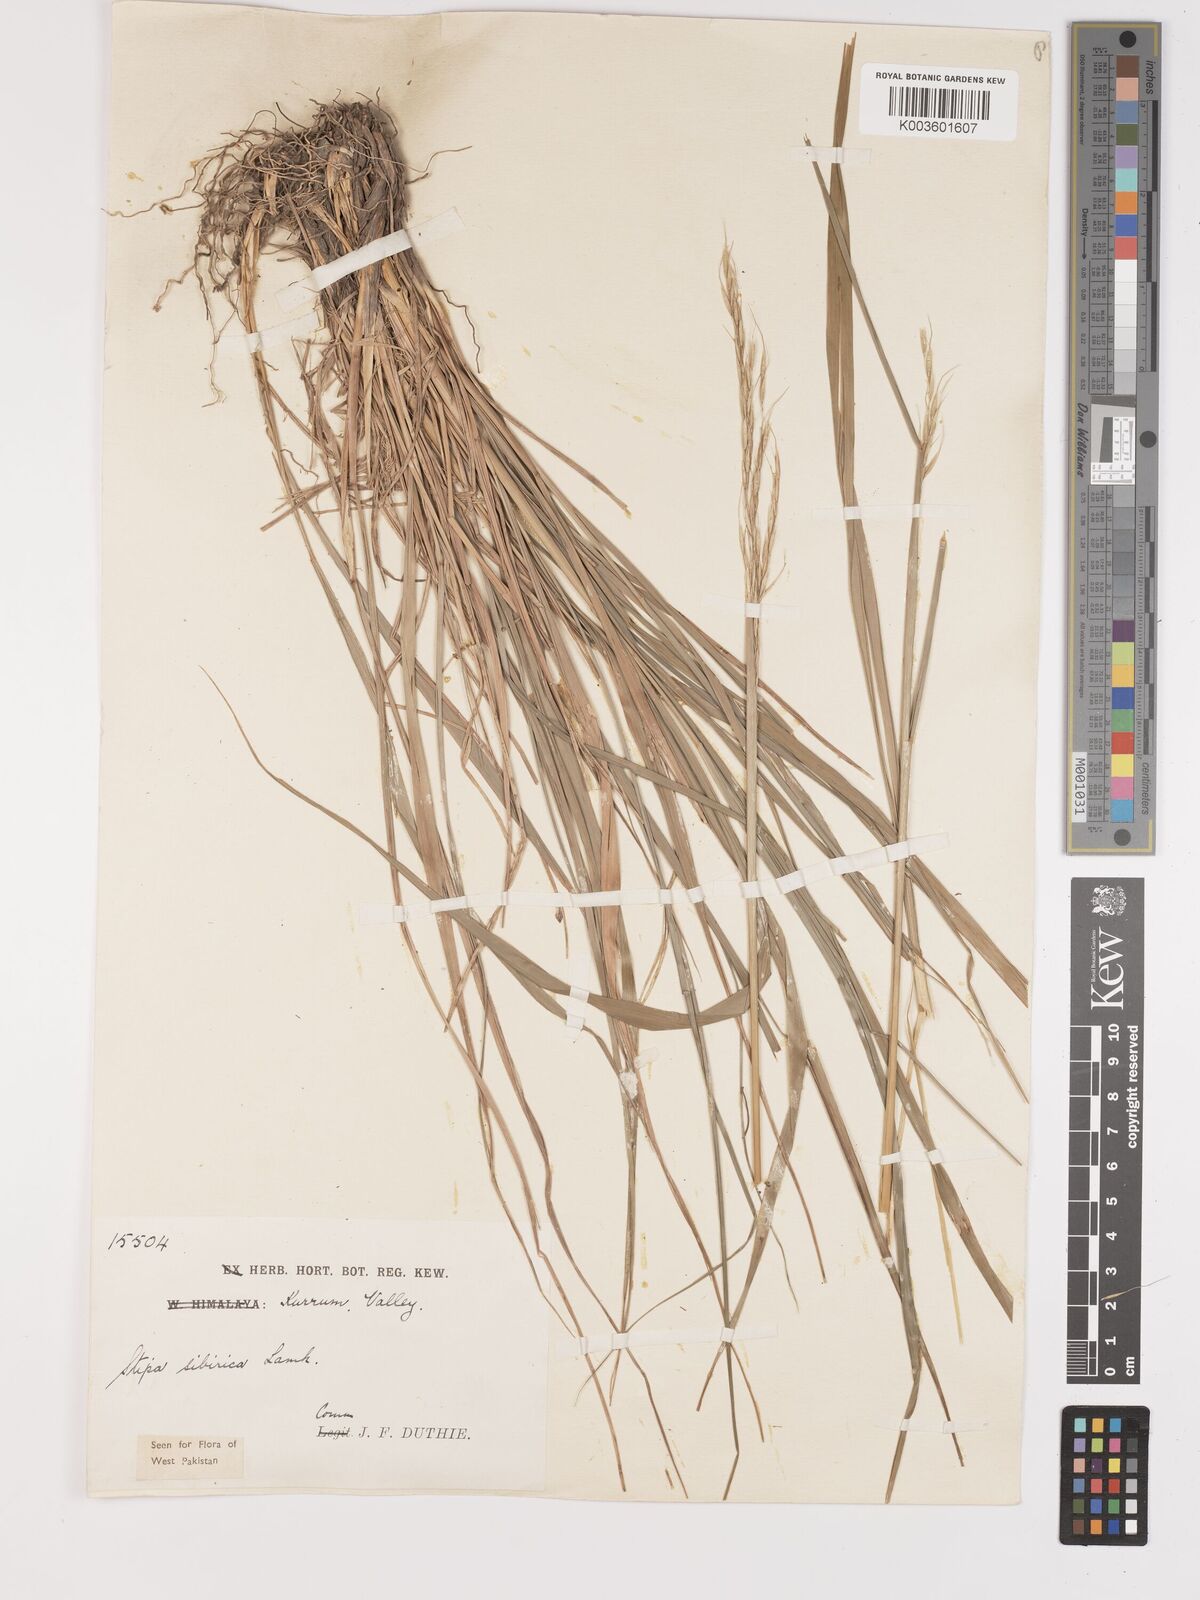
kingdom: Plantae
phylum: Tracheophyta
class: Liliopsida
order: Poales
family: Poaceae
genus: Achnatherum
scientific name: Achnatherum brandisii
